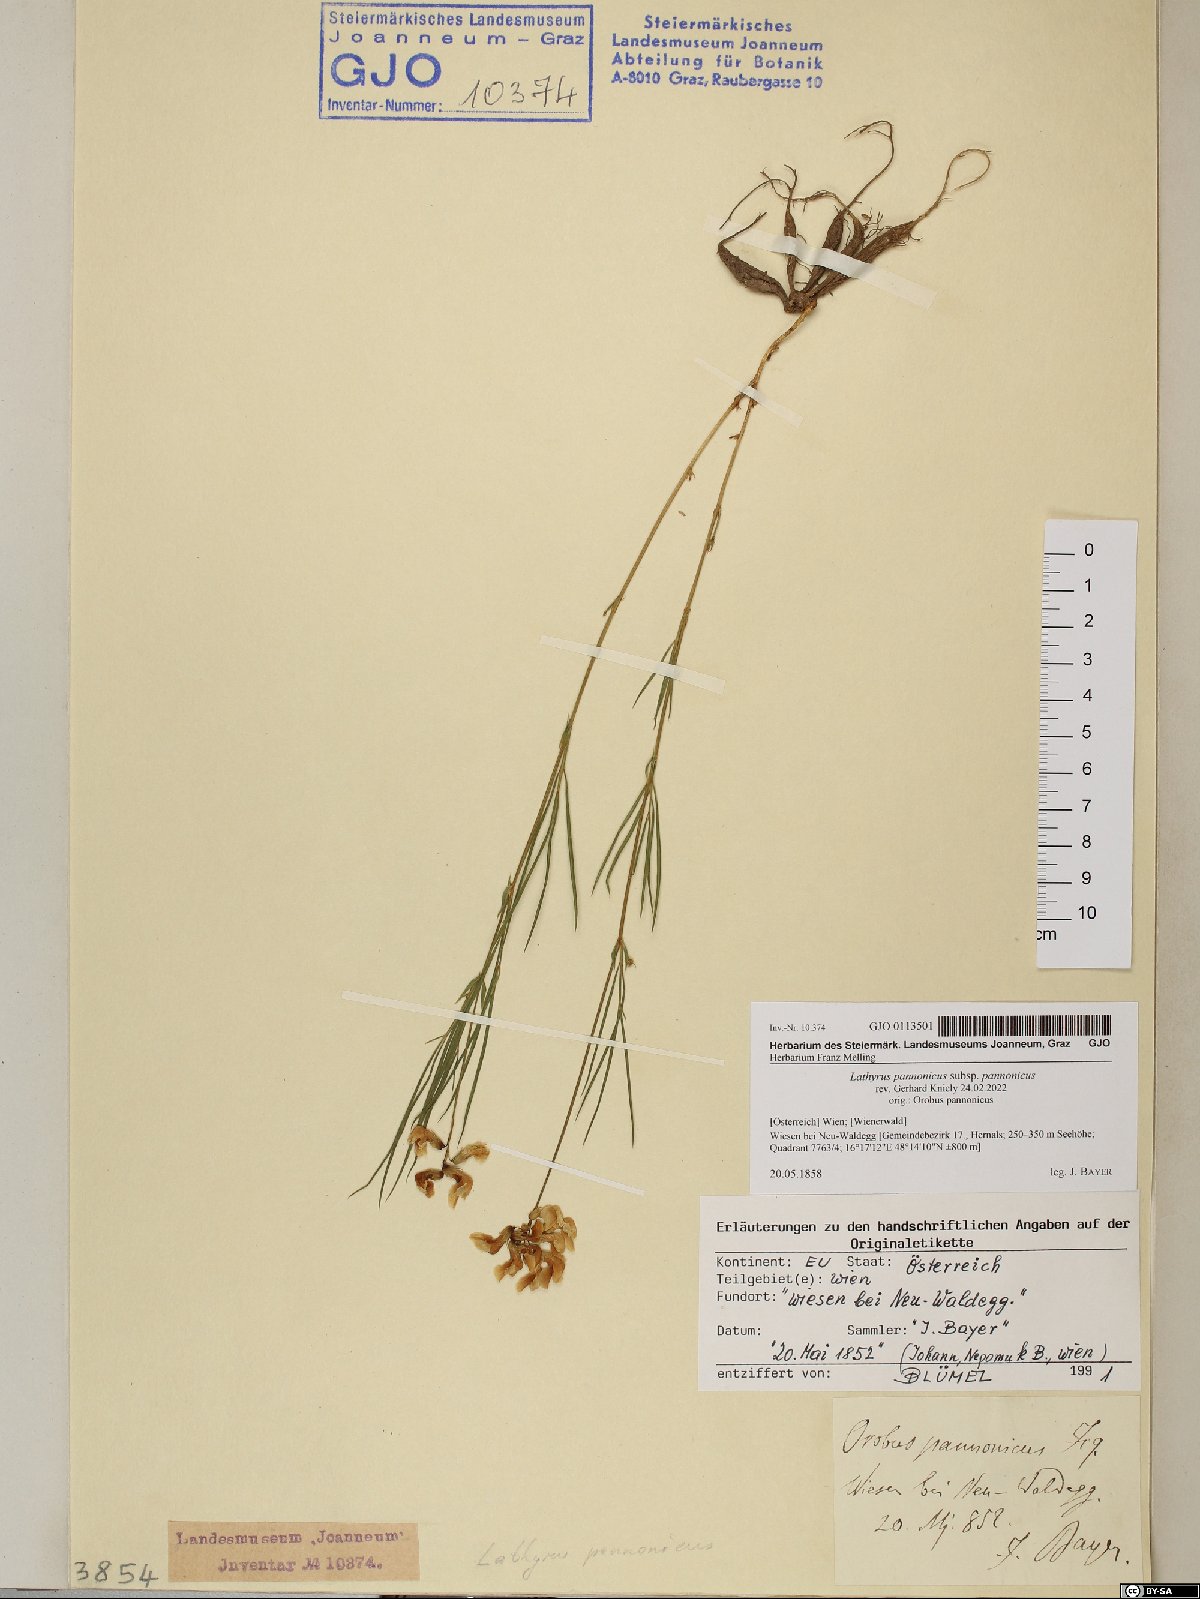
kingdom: Plantae
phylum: Tracheophyta
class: Magnoliopsida
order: Fabales
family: Fabaceae
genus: Lathyrus
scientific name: Lathyrus pannonicus
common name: Pea
